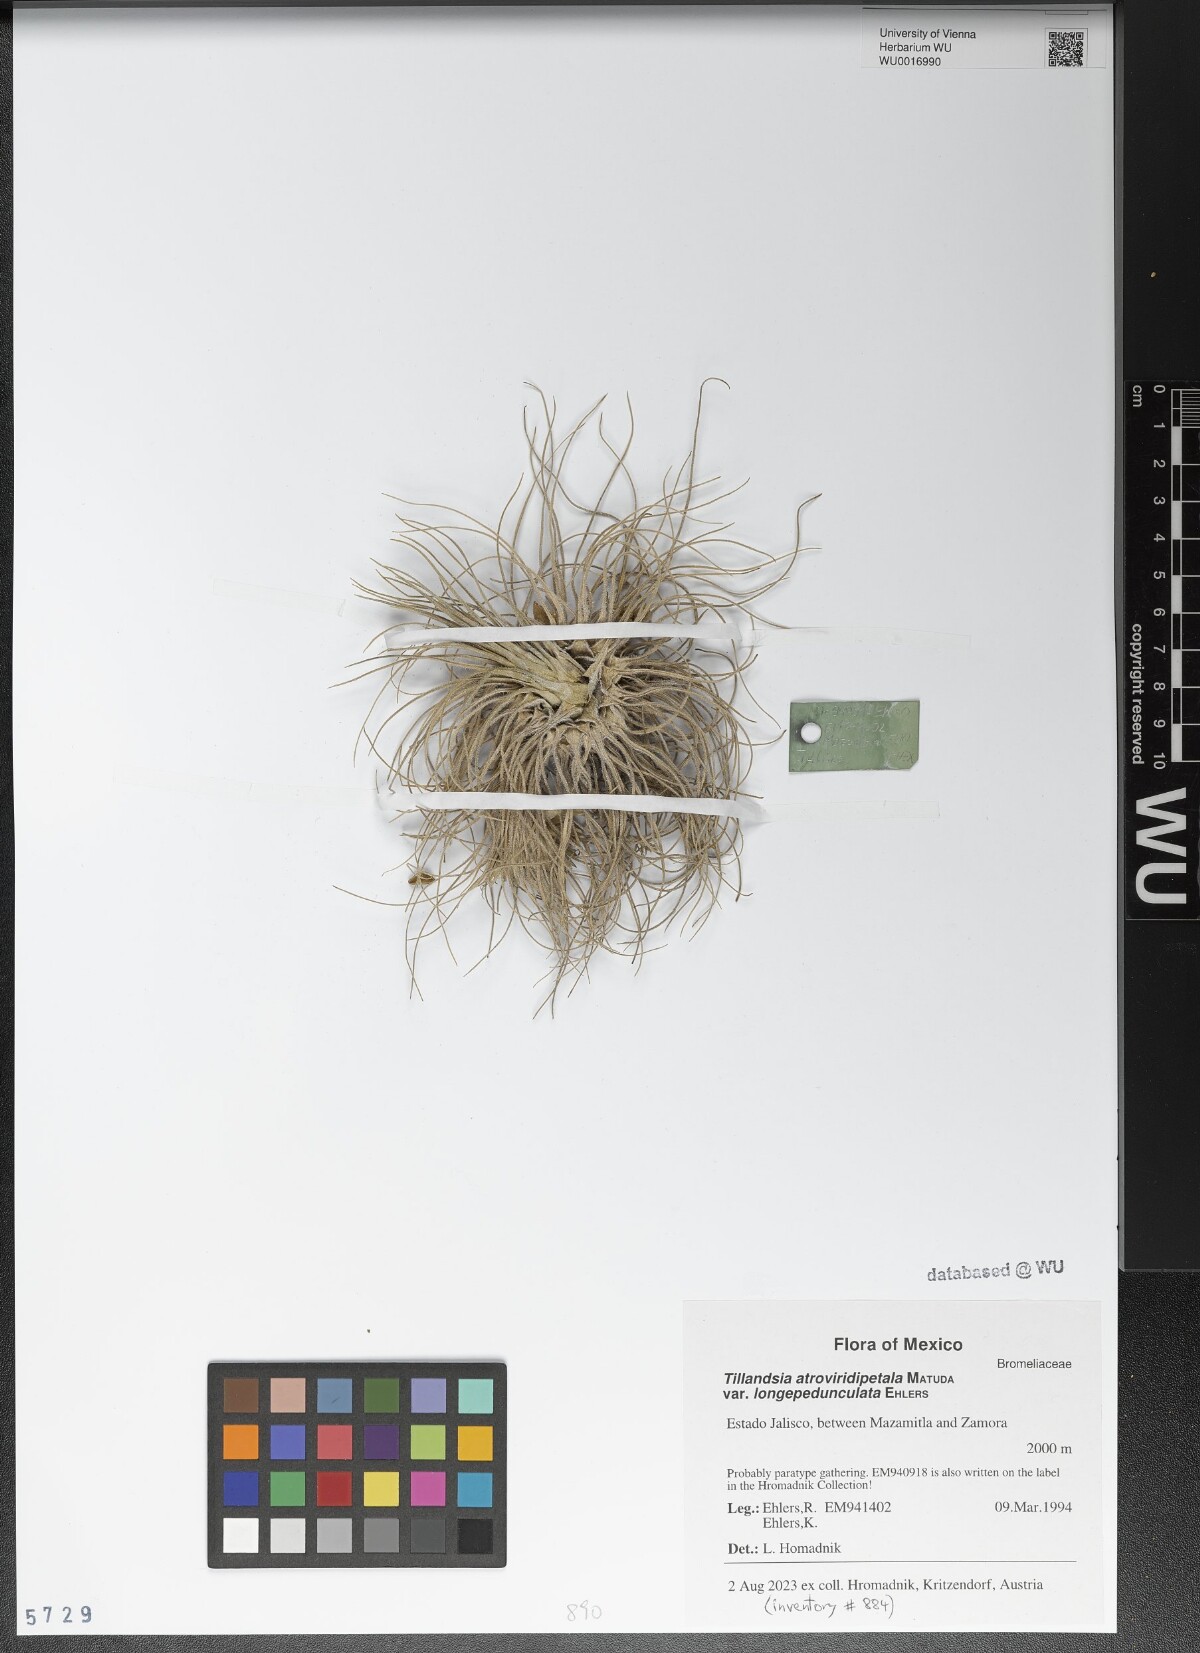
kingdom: Plantae
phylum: Tracheophyta
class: Liliopsida
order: Poales
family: Bromeliaceae
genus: Tillandsia
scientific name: Tillandsia atroviridipetala
